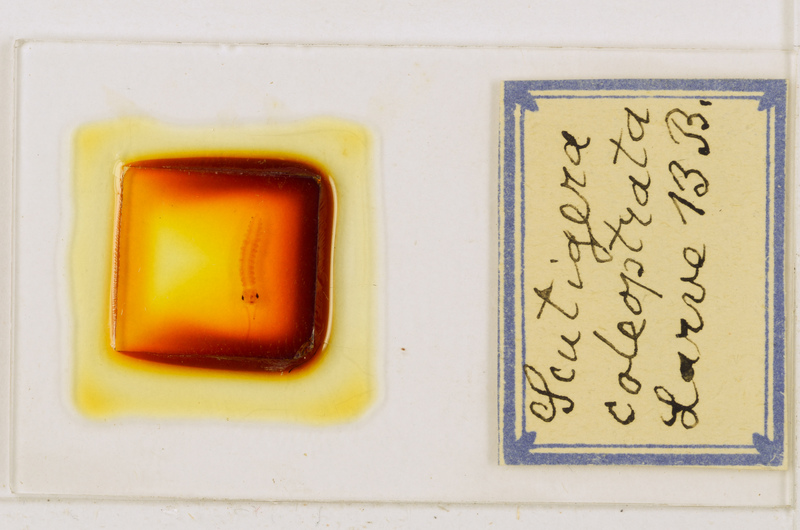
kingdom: Animalia
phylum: Arthropoda
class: Chilopoda
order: Scutigeromorpha
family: Scutigeridae
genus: Scutigera
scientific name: Scutigera coleoptrata
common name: House centipede
